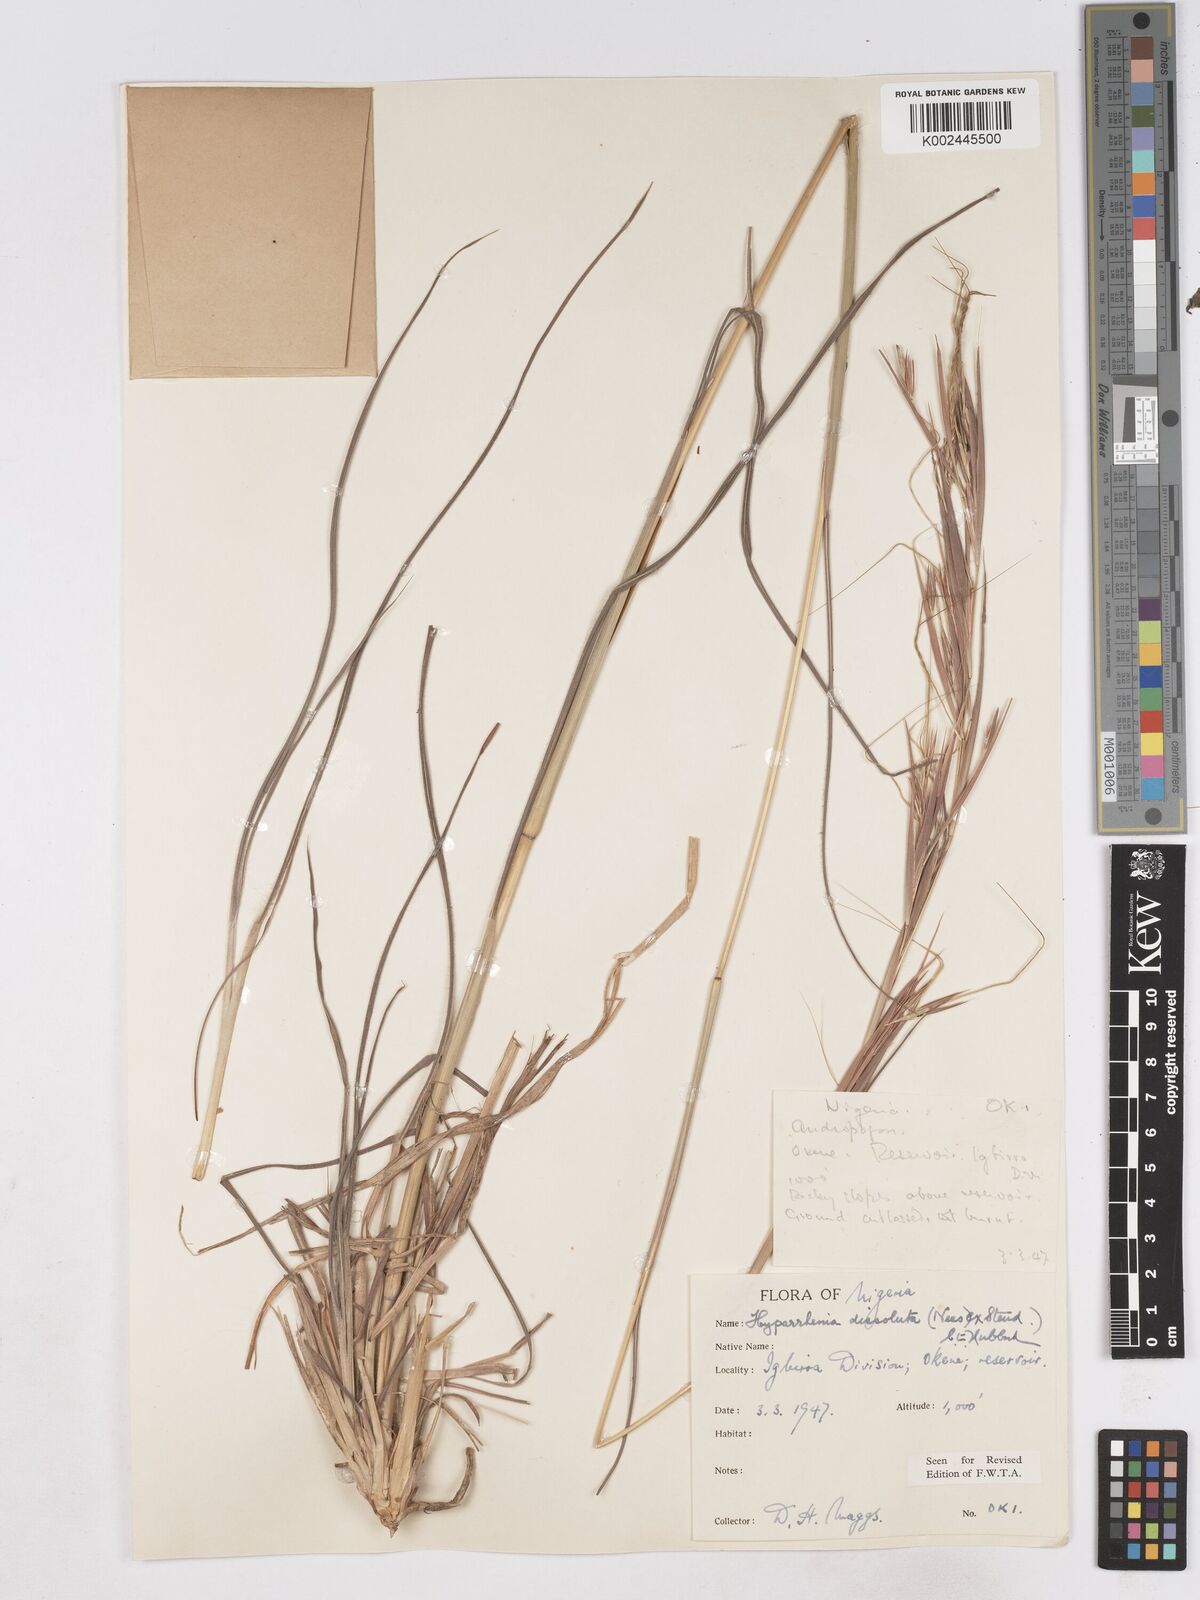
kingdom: Plantae
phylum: Tracheophyta
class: Liliopsida
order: Poales
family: Poaceae
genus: Hyperthelia
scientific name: Hyperthelia dissoluta
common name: Yellow thatching grass
